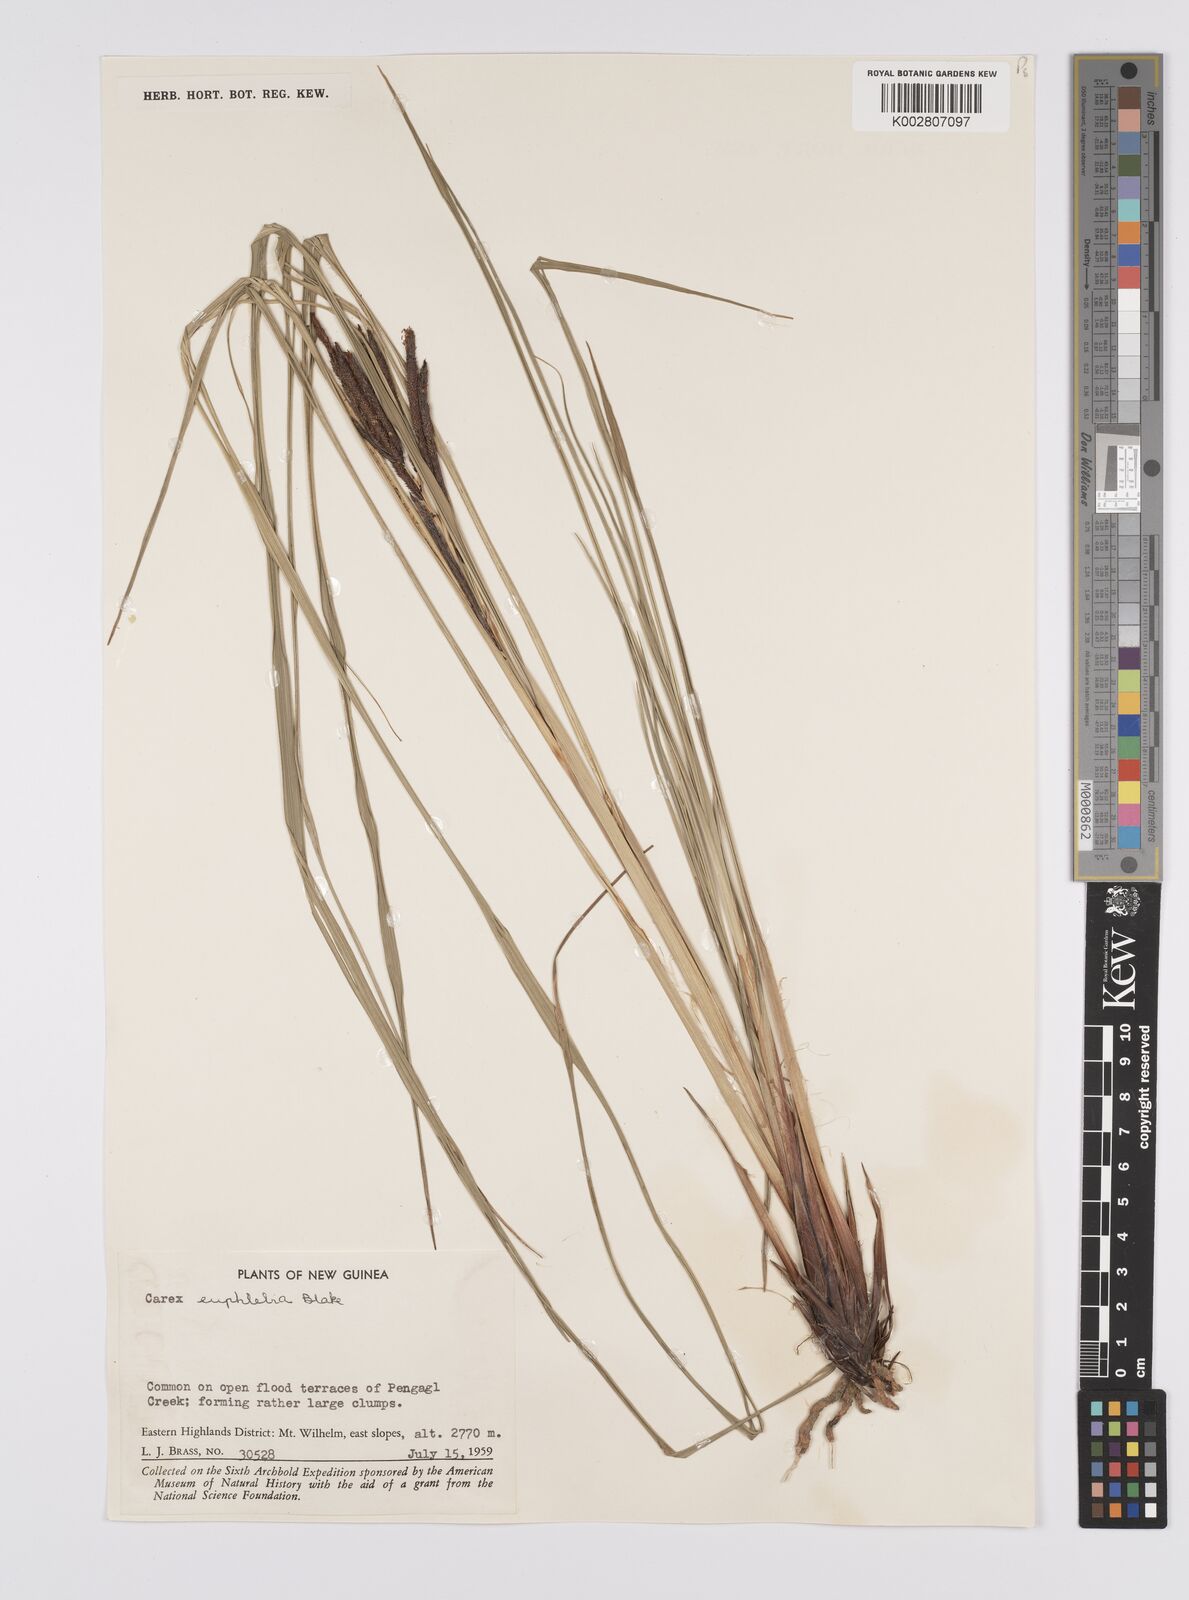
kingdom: Plantae
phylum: Tracheophyta
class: Liliopsida
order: Poales
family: Cyperaceae
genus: Carex
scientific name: Carex graeffeana
